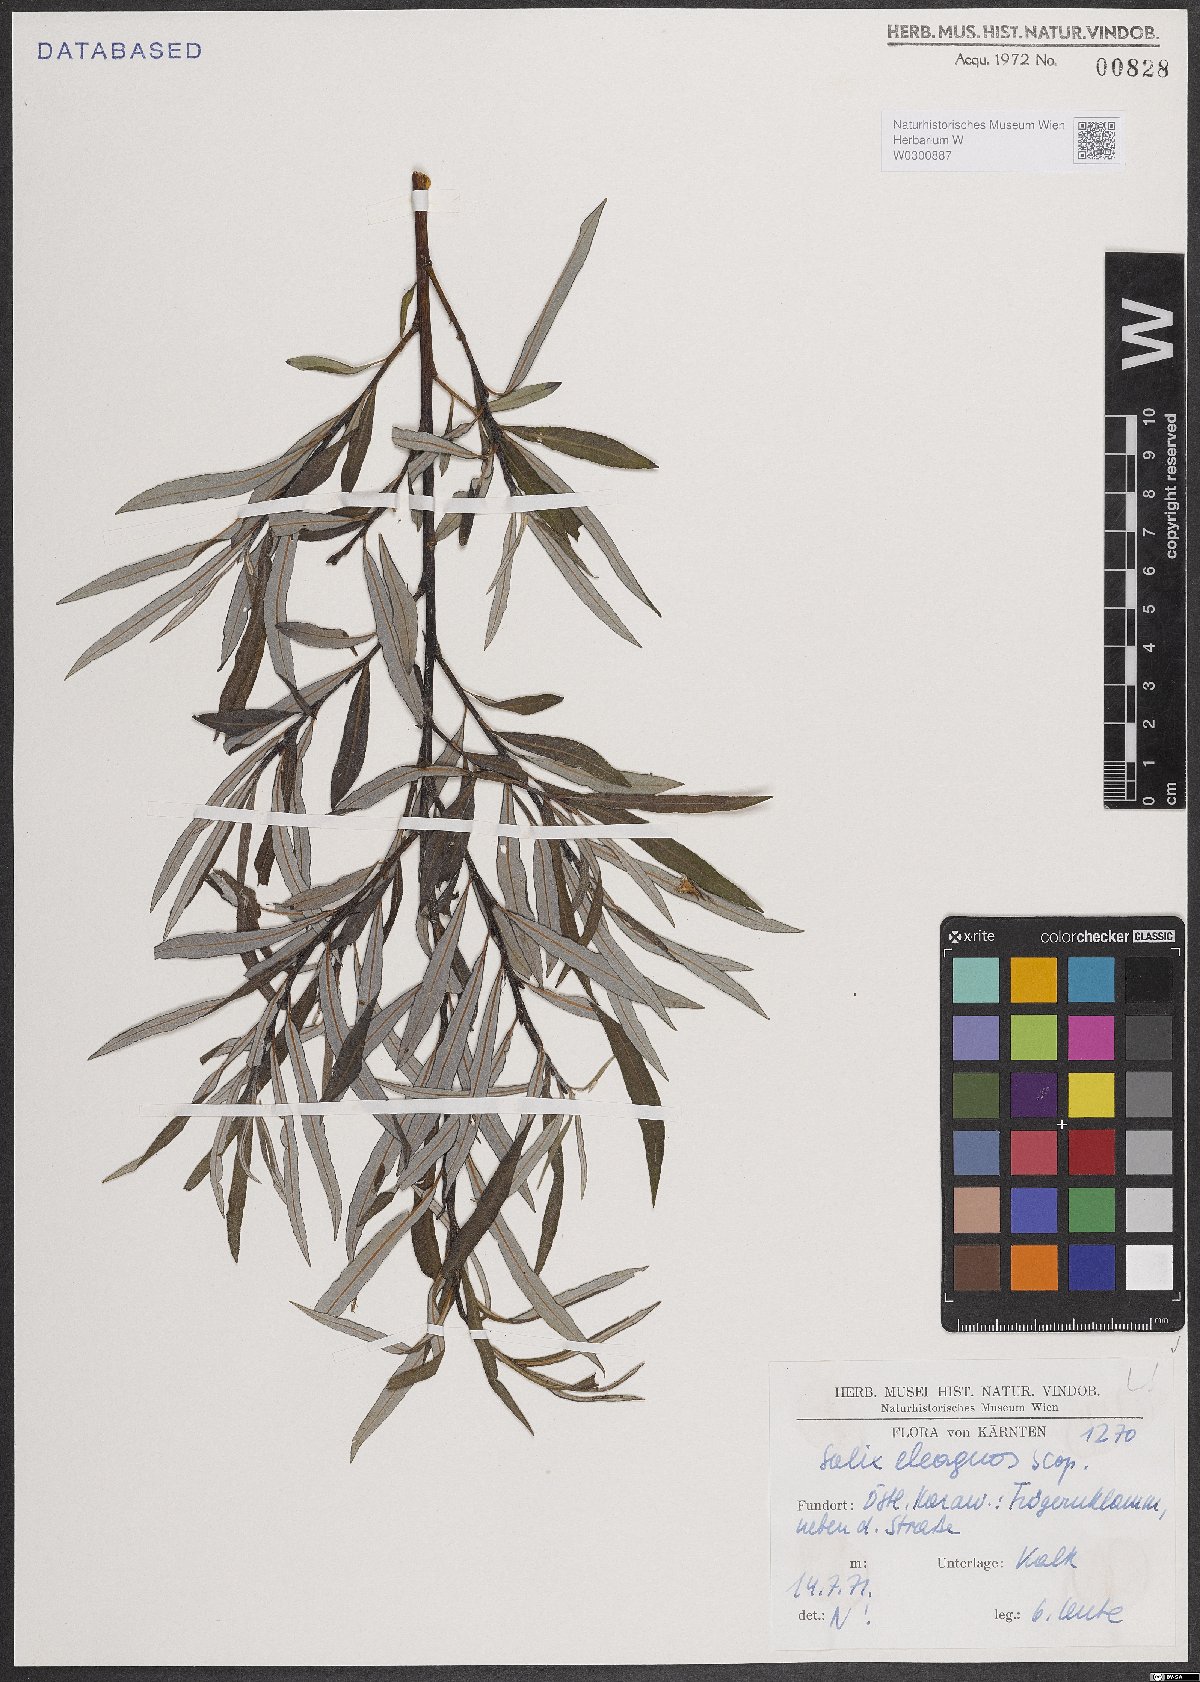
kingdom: Plantae
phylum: Tracheophyta
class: Magnoliopsida
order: Malpighiales
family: Salicaceae
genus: Salix
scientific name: Salix eleagnos
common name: Elaeagnus willow
